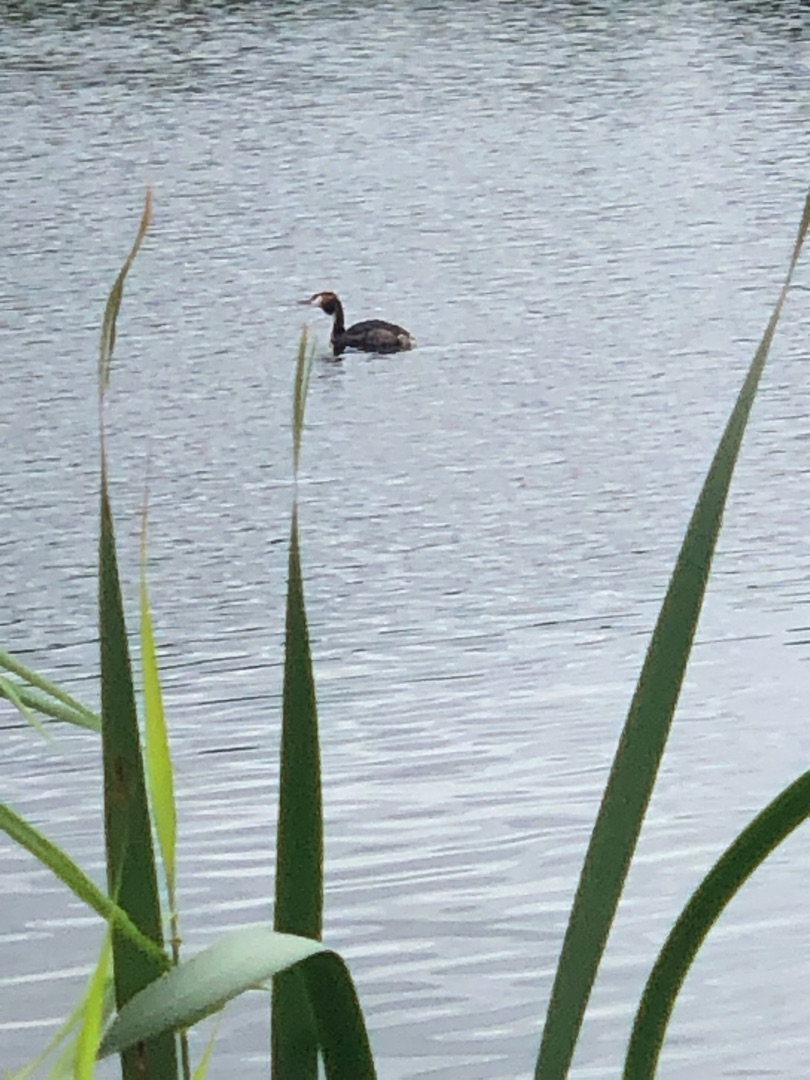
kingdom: Animalia
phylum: Chordata
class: Aves
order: Podicipediformes
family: Podicipedidae
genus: Podiceps
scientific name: Podiceps cristatus
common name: Toppet lappedykker
